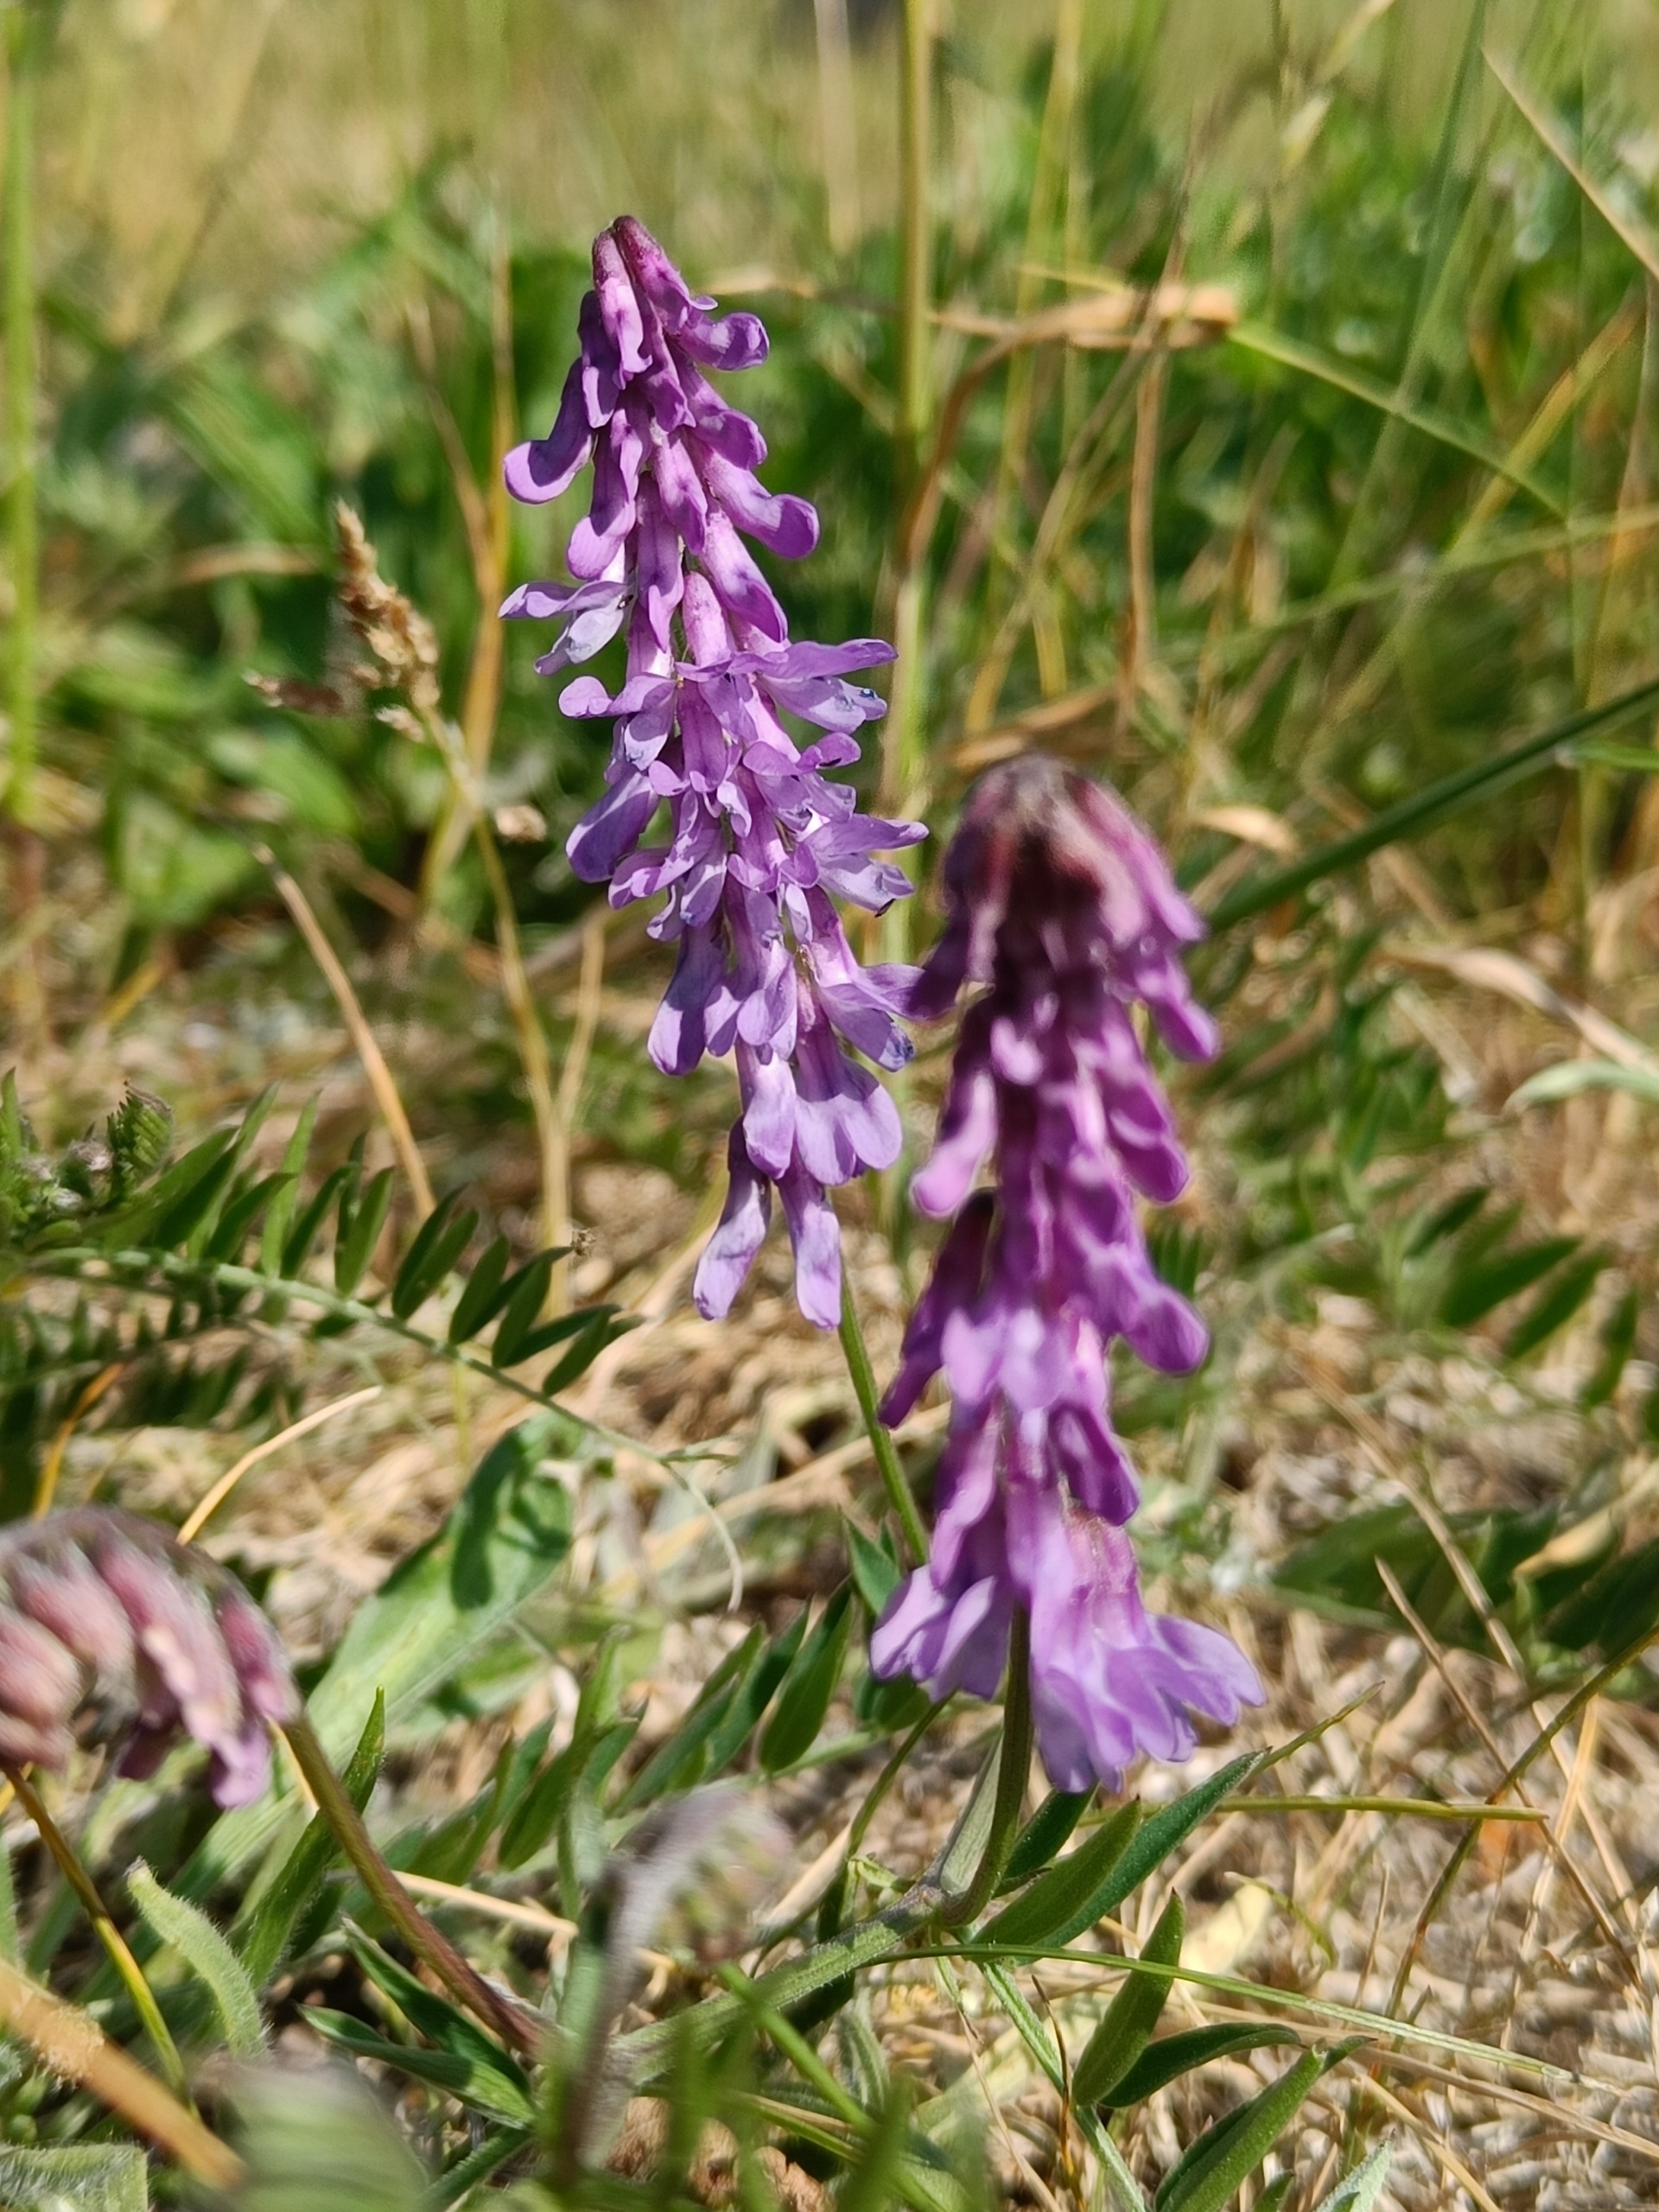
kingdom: Plantae
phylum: Tracheophyta
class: Magnoliopsida
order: Fabales
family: Fabaceae
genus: Vicia
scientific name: Vicia cracca
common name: Muse-vikke
